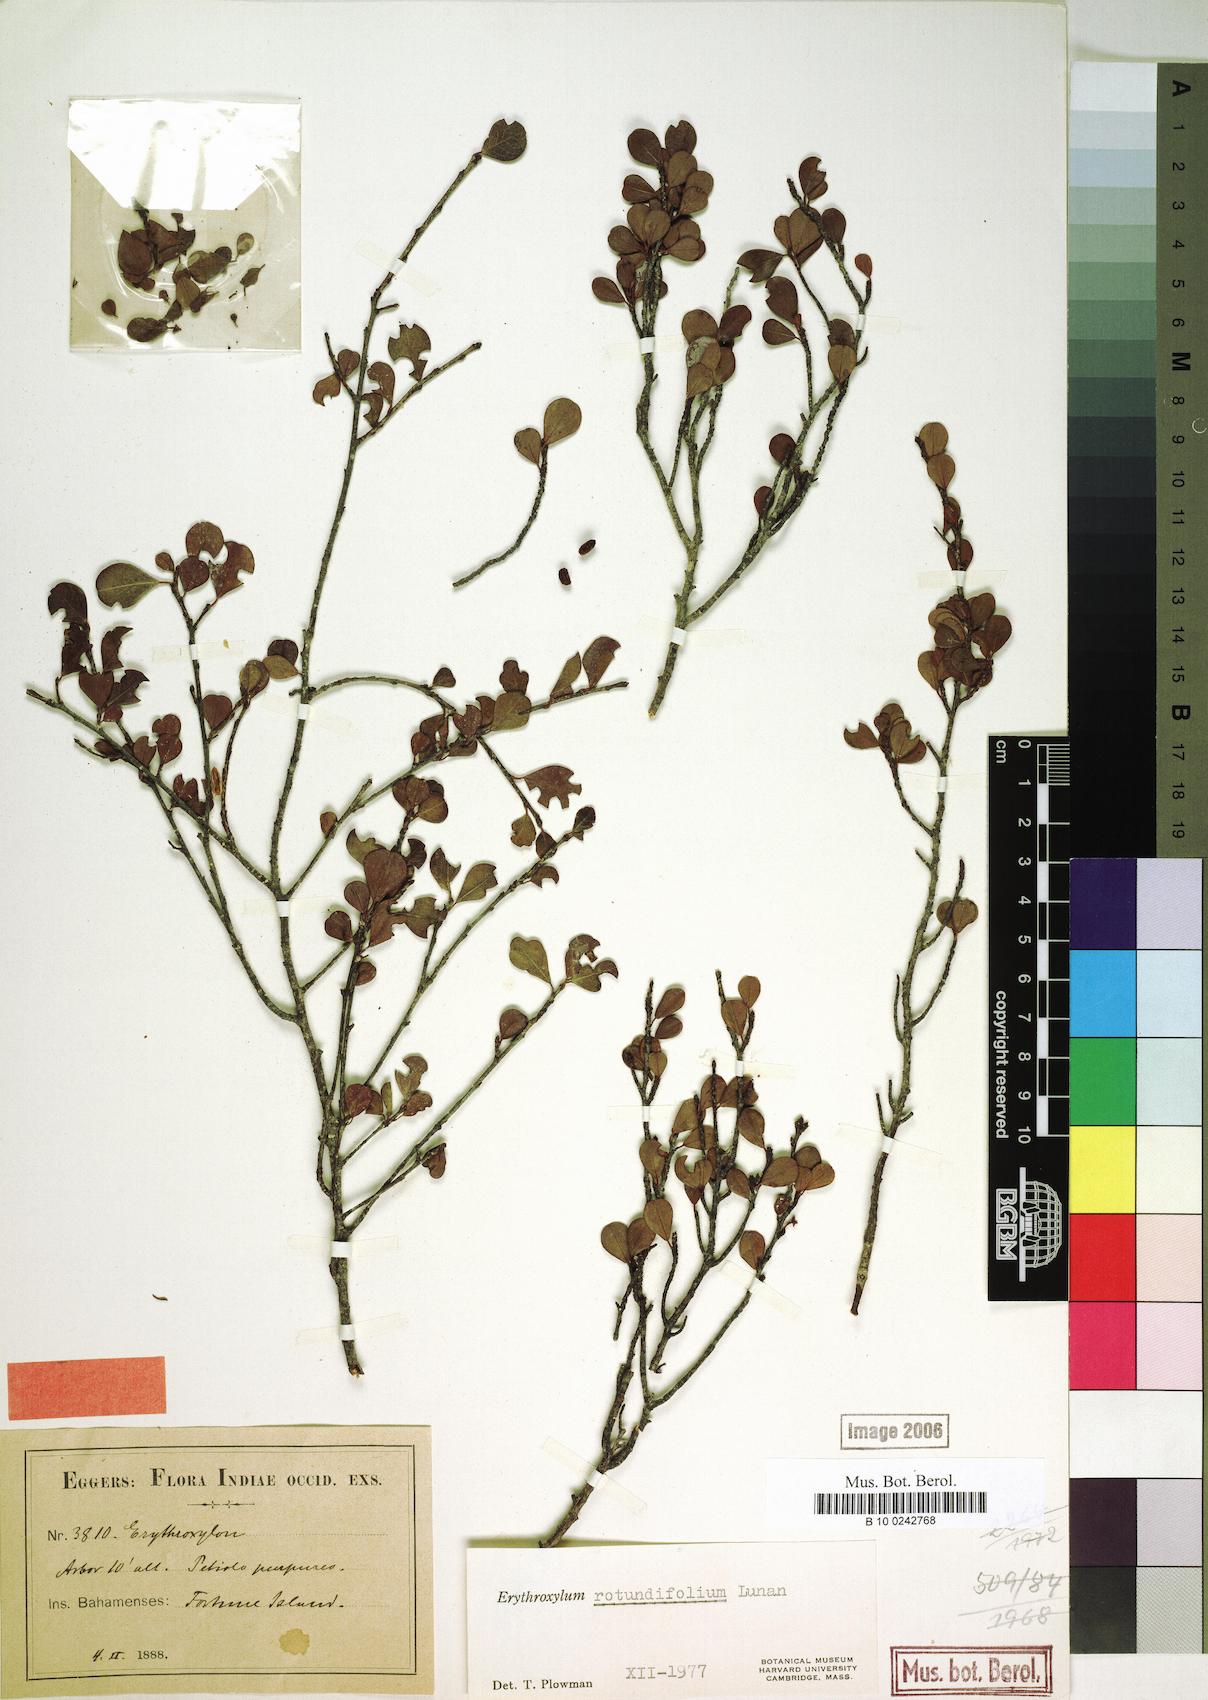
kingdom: Plantae
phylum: Tracheophyta
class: Magnoliopsida
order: Malpighiales
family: Erythroxylaceae
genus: Erythroxylum
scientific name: Erythroxylum rotundifolium
